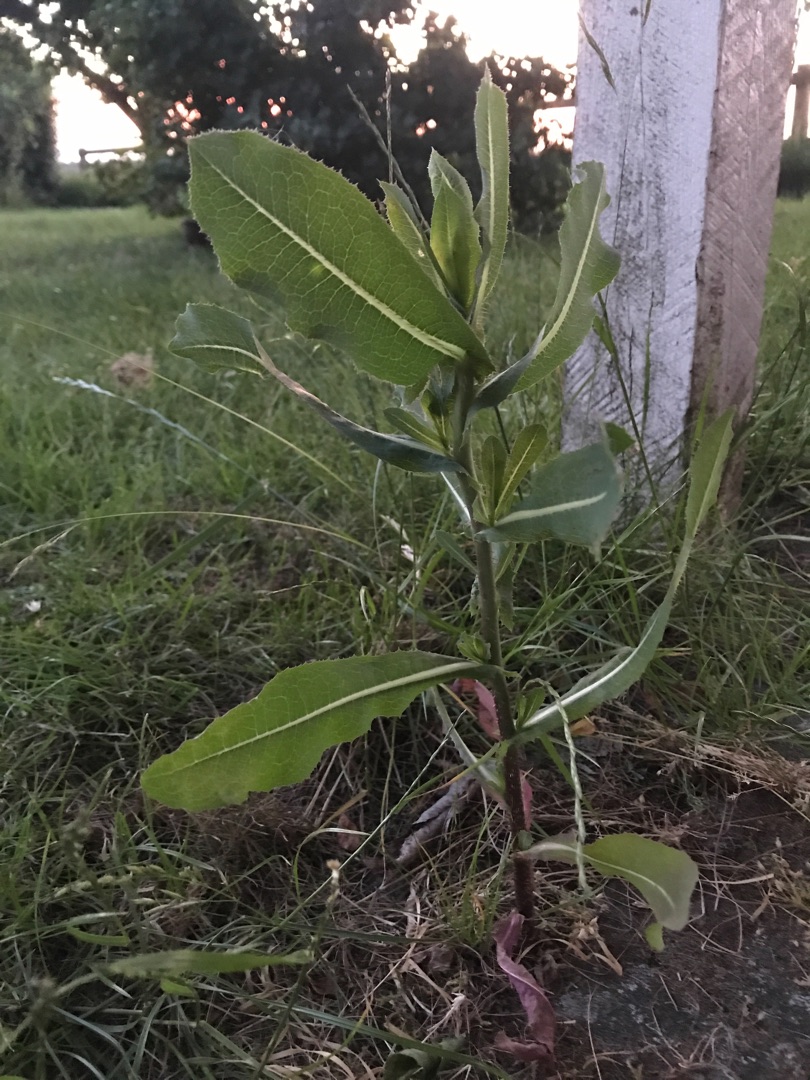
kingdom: Plantae
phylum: Tracheophyta
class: Magnoliopsida
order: Asterales
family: Asteraceae
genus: Lactuca
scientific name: Lactuca serriola
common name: Tornet salat
